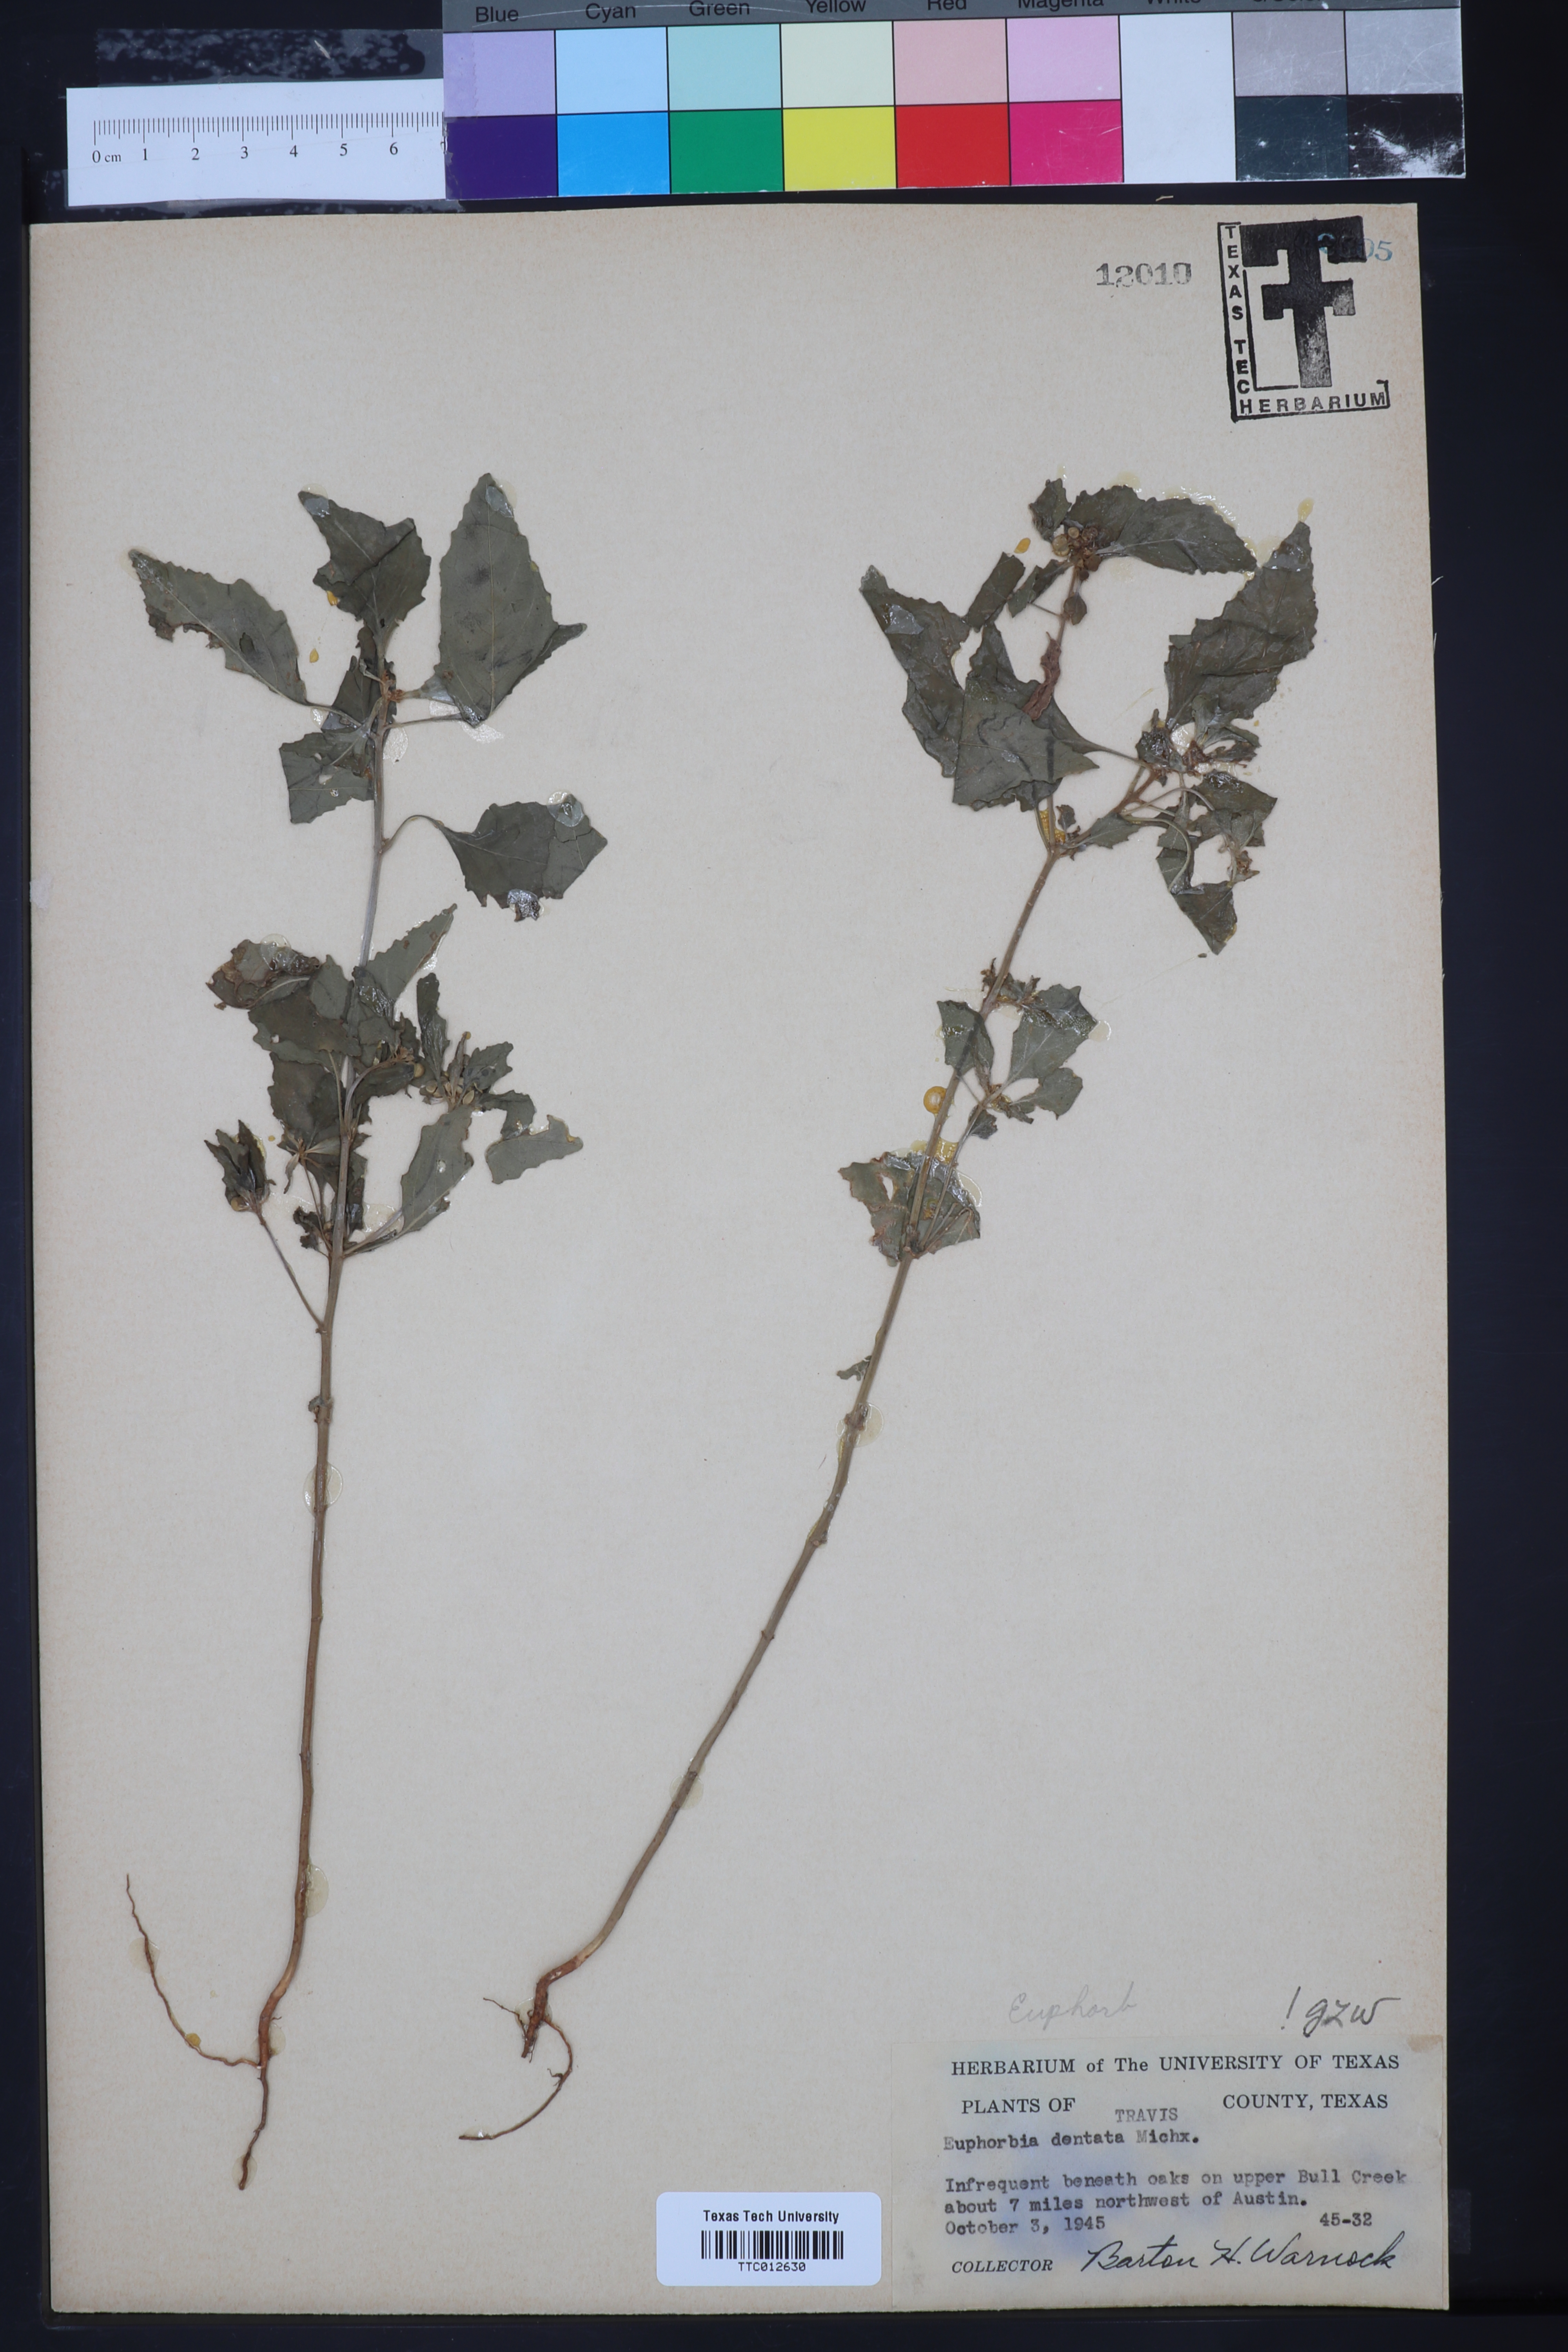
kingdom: Plantae
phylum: Tracheophyta
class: Magnoliopsida
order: Malpighiales
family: Euphorbiaceae
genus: Euphorbia
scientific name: Euphorbia dentata
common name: Dentate spurge
